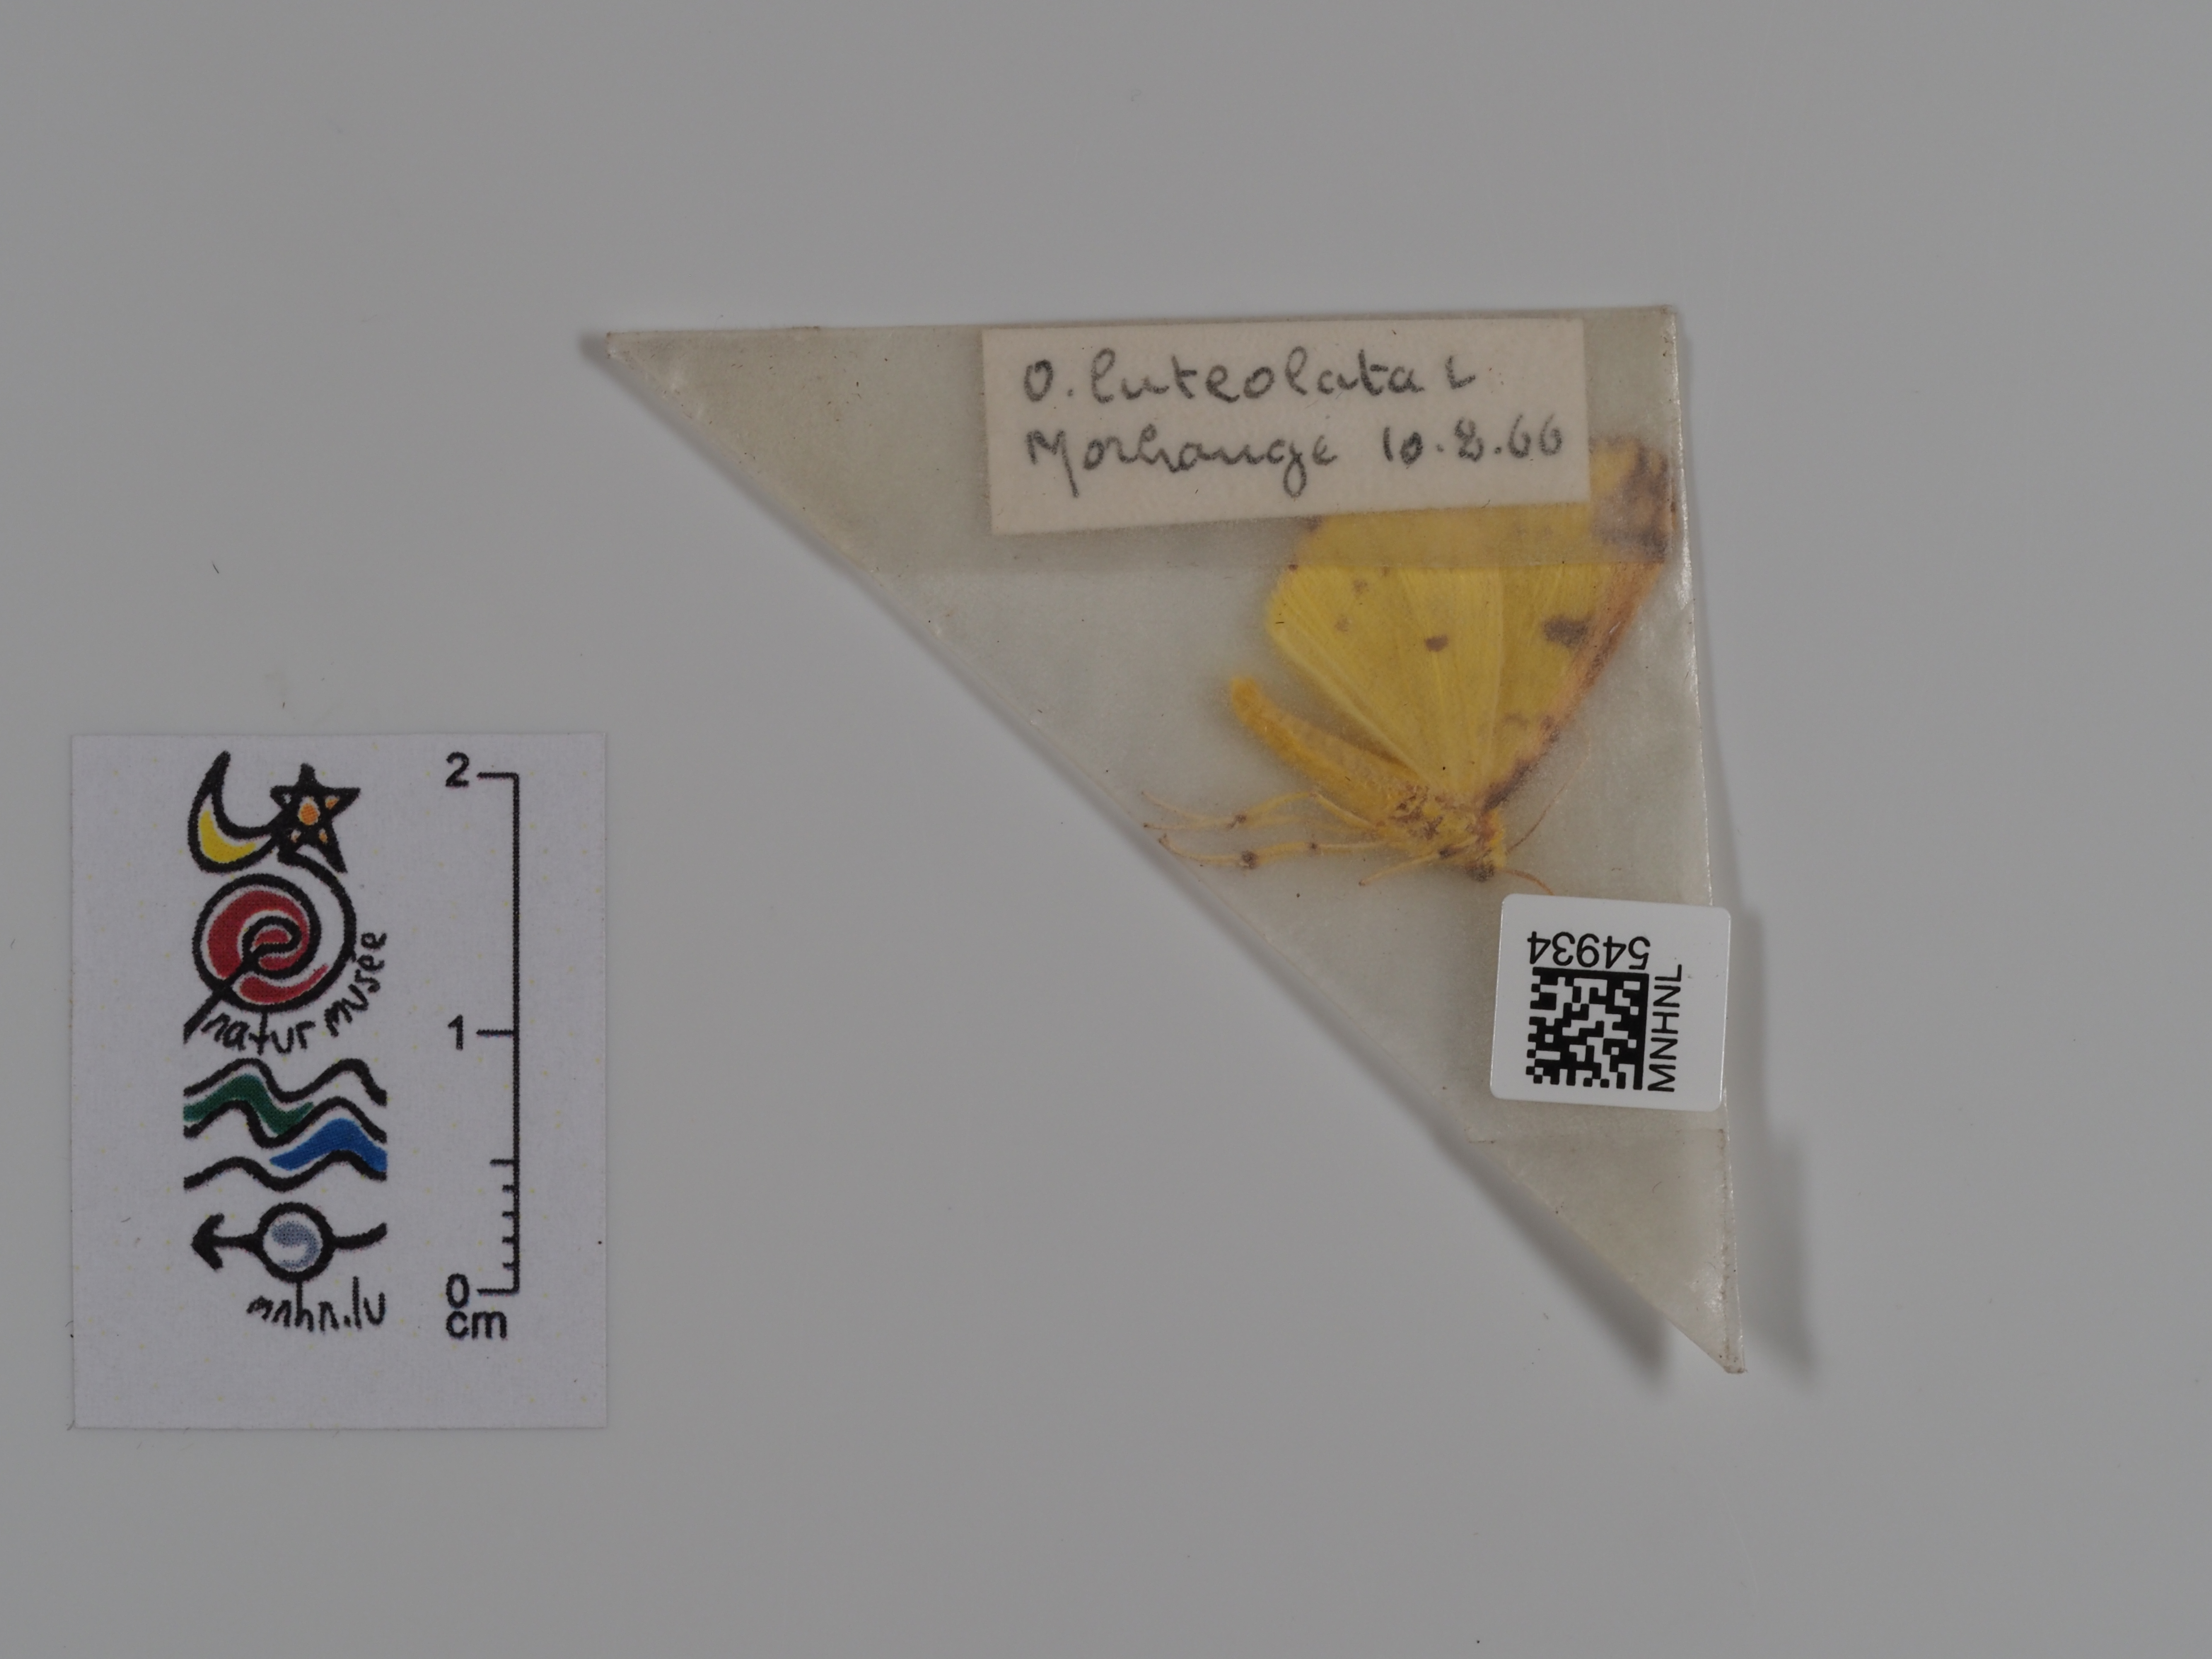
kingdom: Animalia
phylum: Arthropoda
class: Insecta
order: Lepidoptera
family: Geometridae
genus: Opisthograptis
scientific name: Opisthograptis luteolata
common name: Brimstone moth
